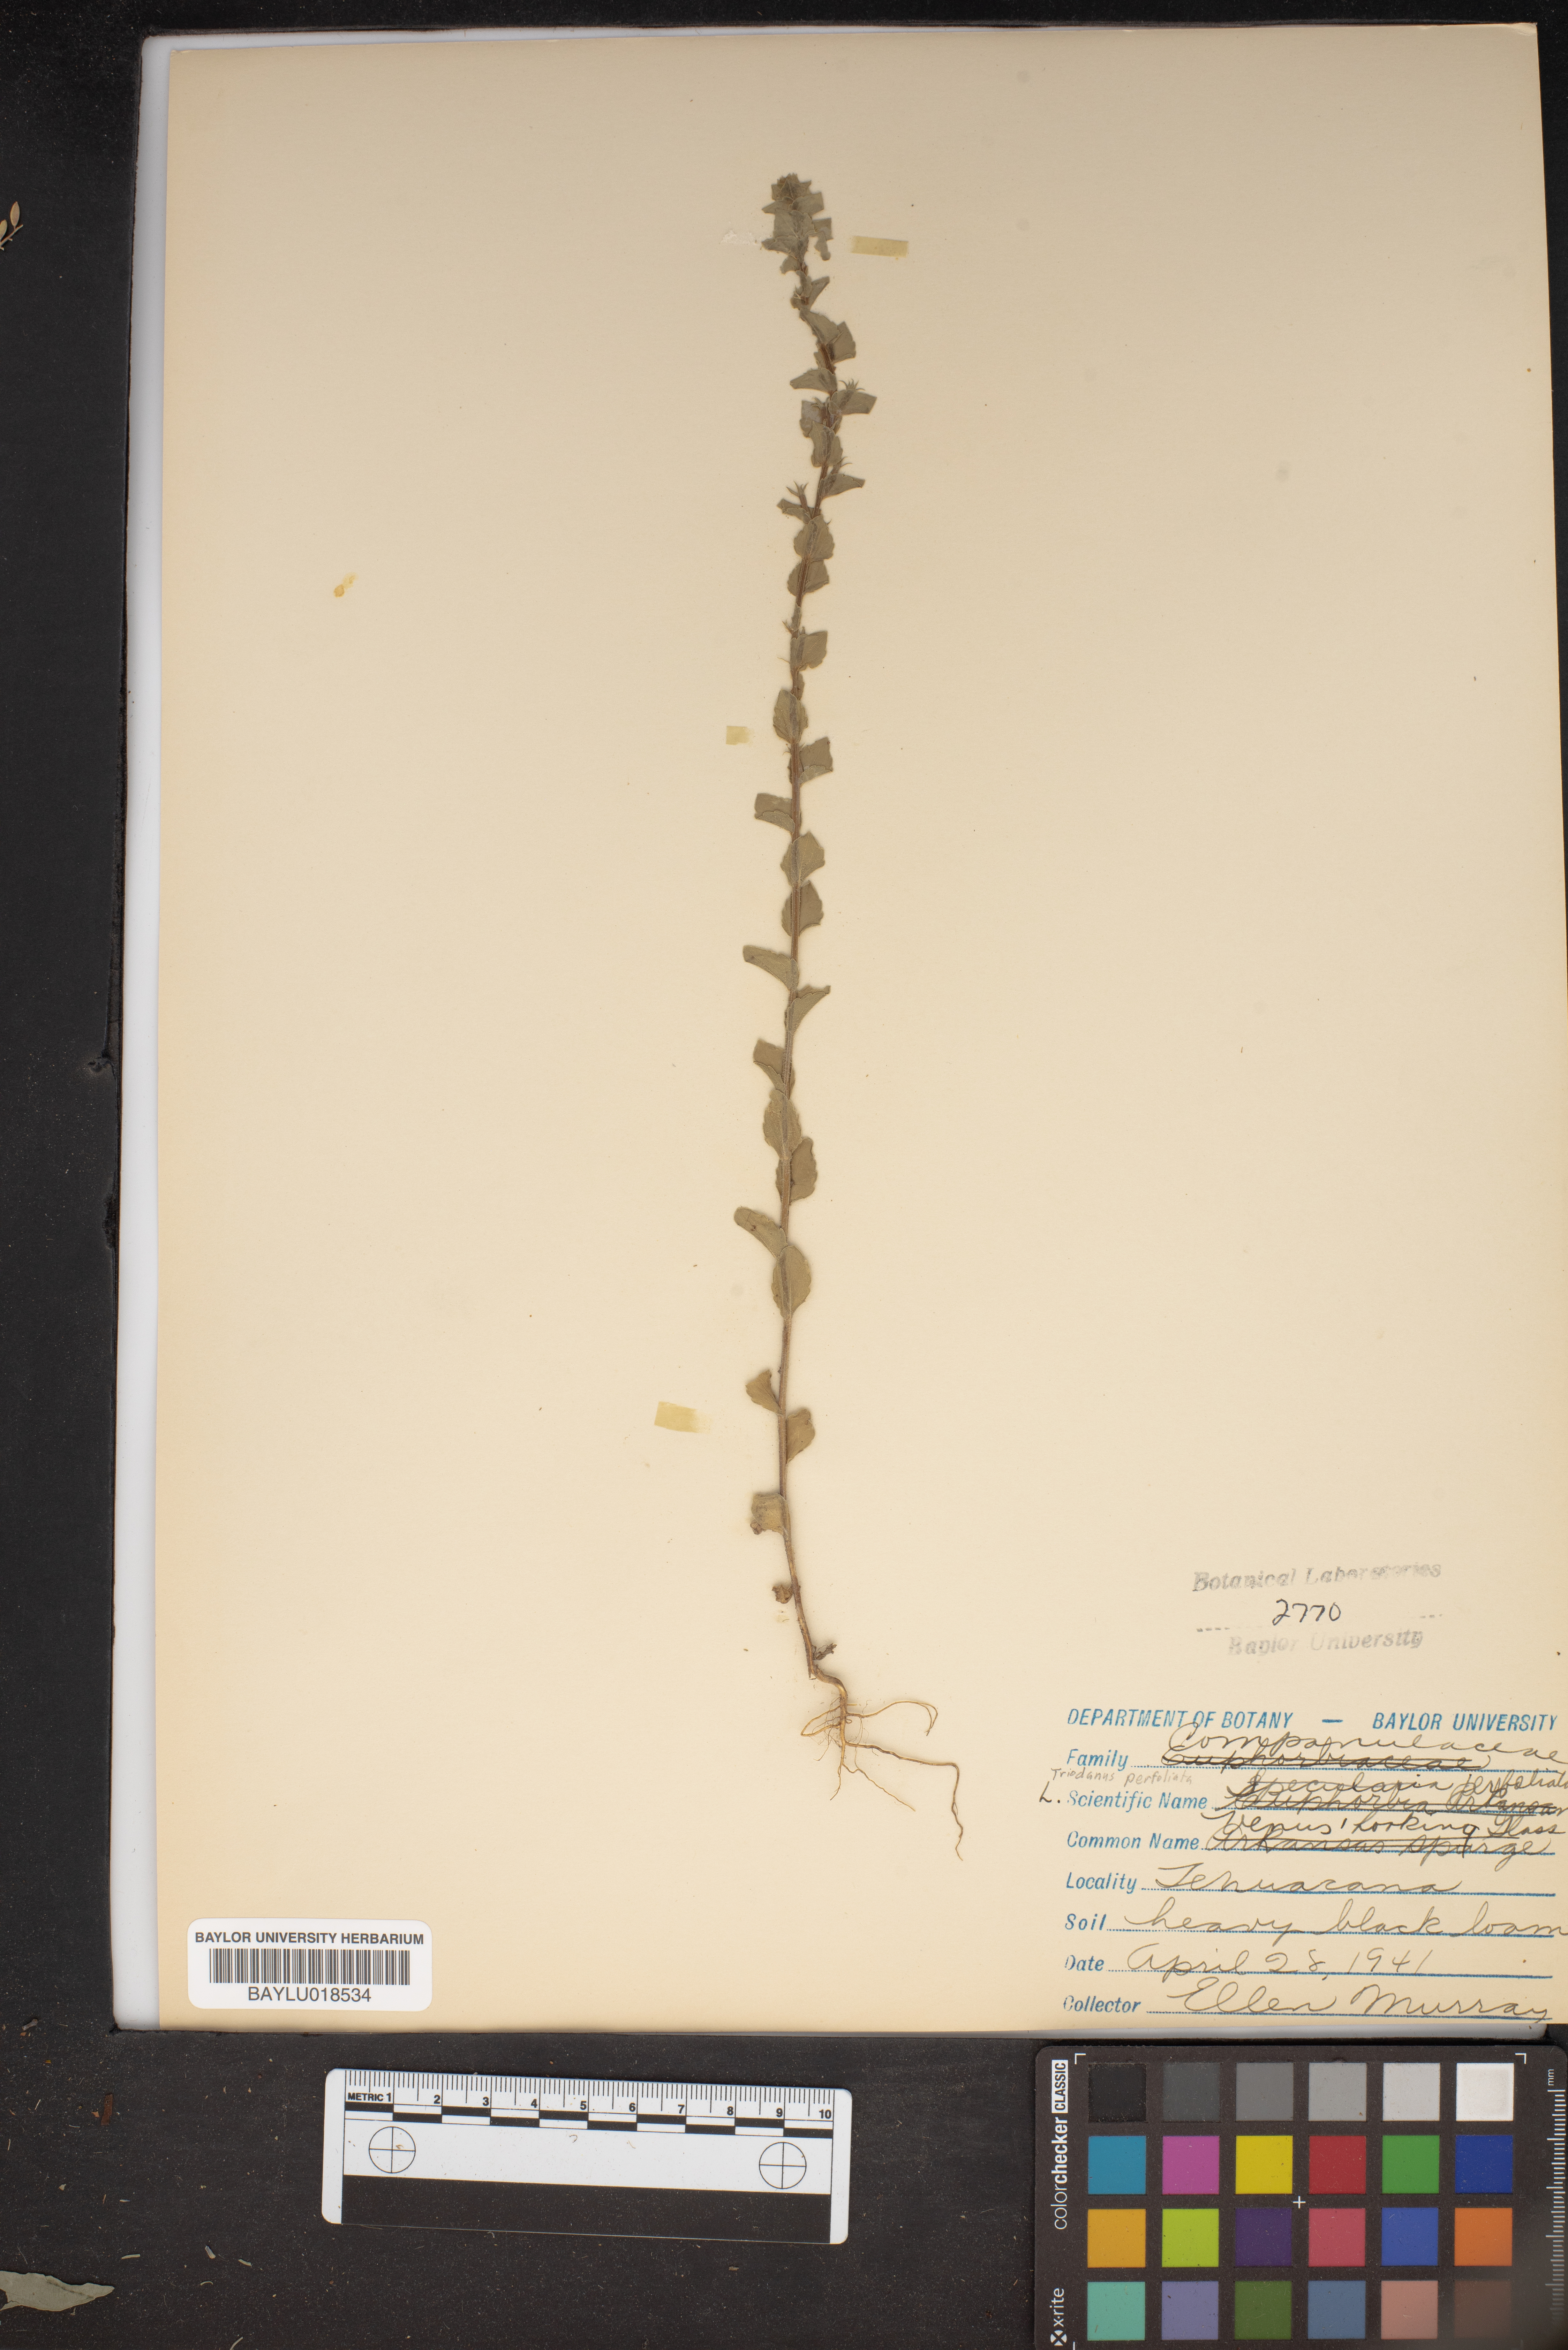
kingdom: Plantae
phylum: Tracheophyta
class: Magnoliopsida
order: Asterales
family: Campanulaceae
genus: Triodanis
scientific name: Triodanis perfoliata
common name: Clasping venus' looking-glass
